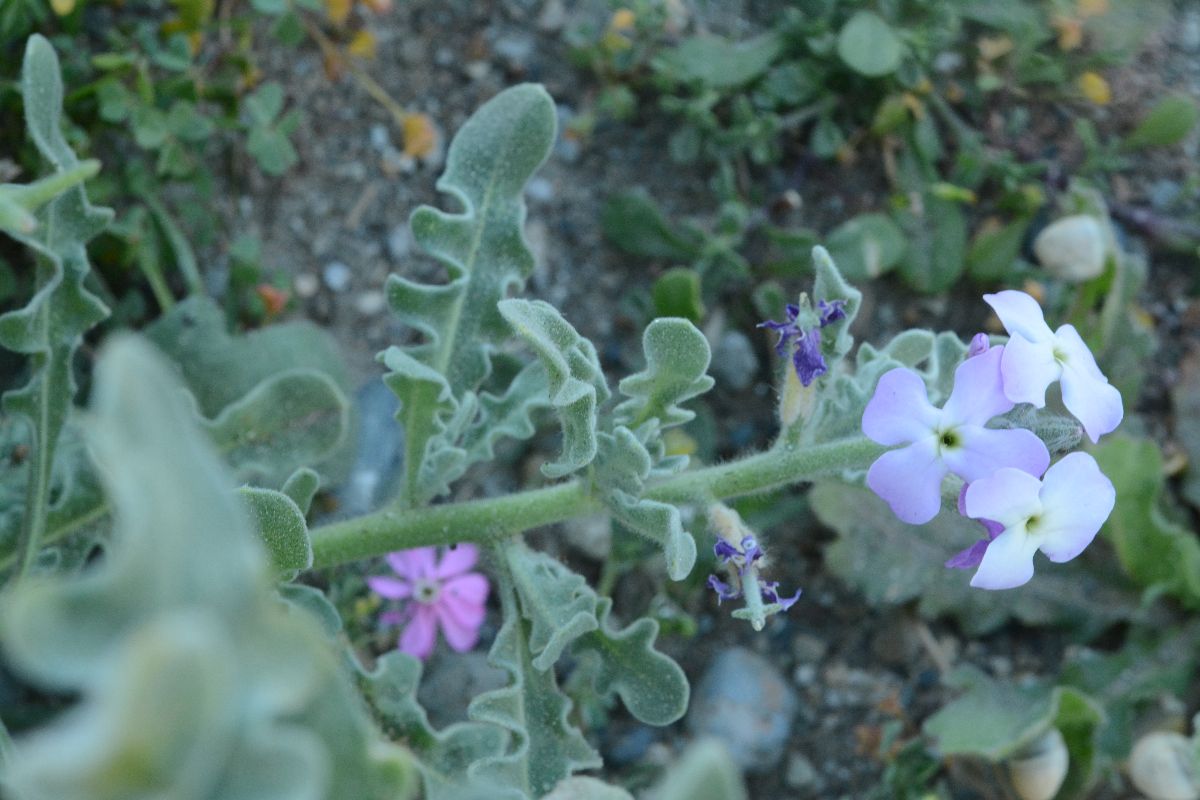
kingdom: Plantae
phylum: Tracheophyta
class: Magnoliopsida
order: Brassicales
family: Brassicaceae
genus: Matthiola
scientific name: Matthiola tricuspidata
